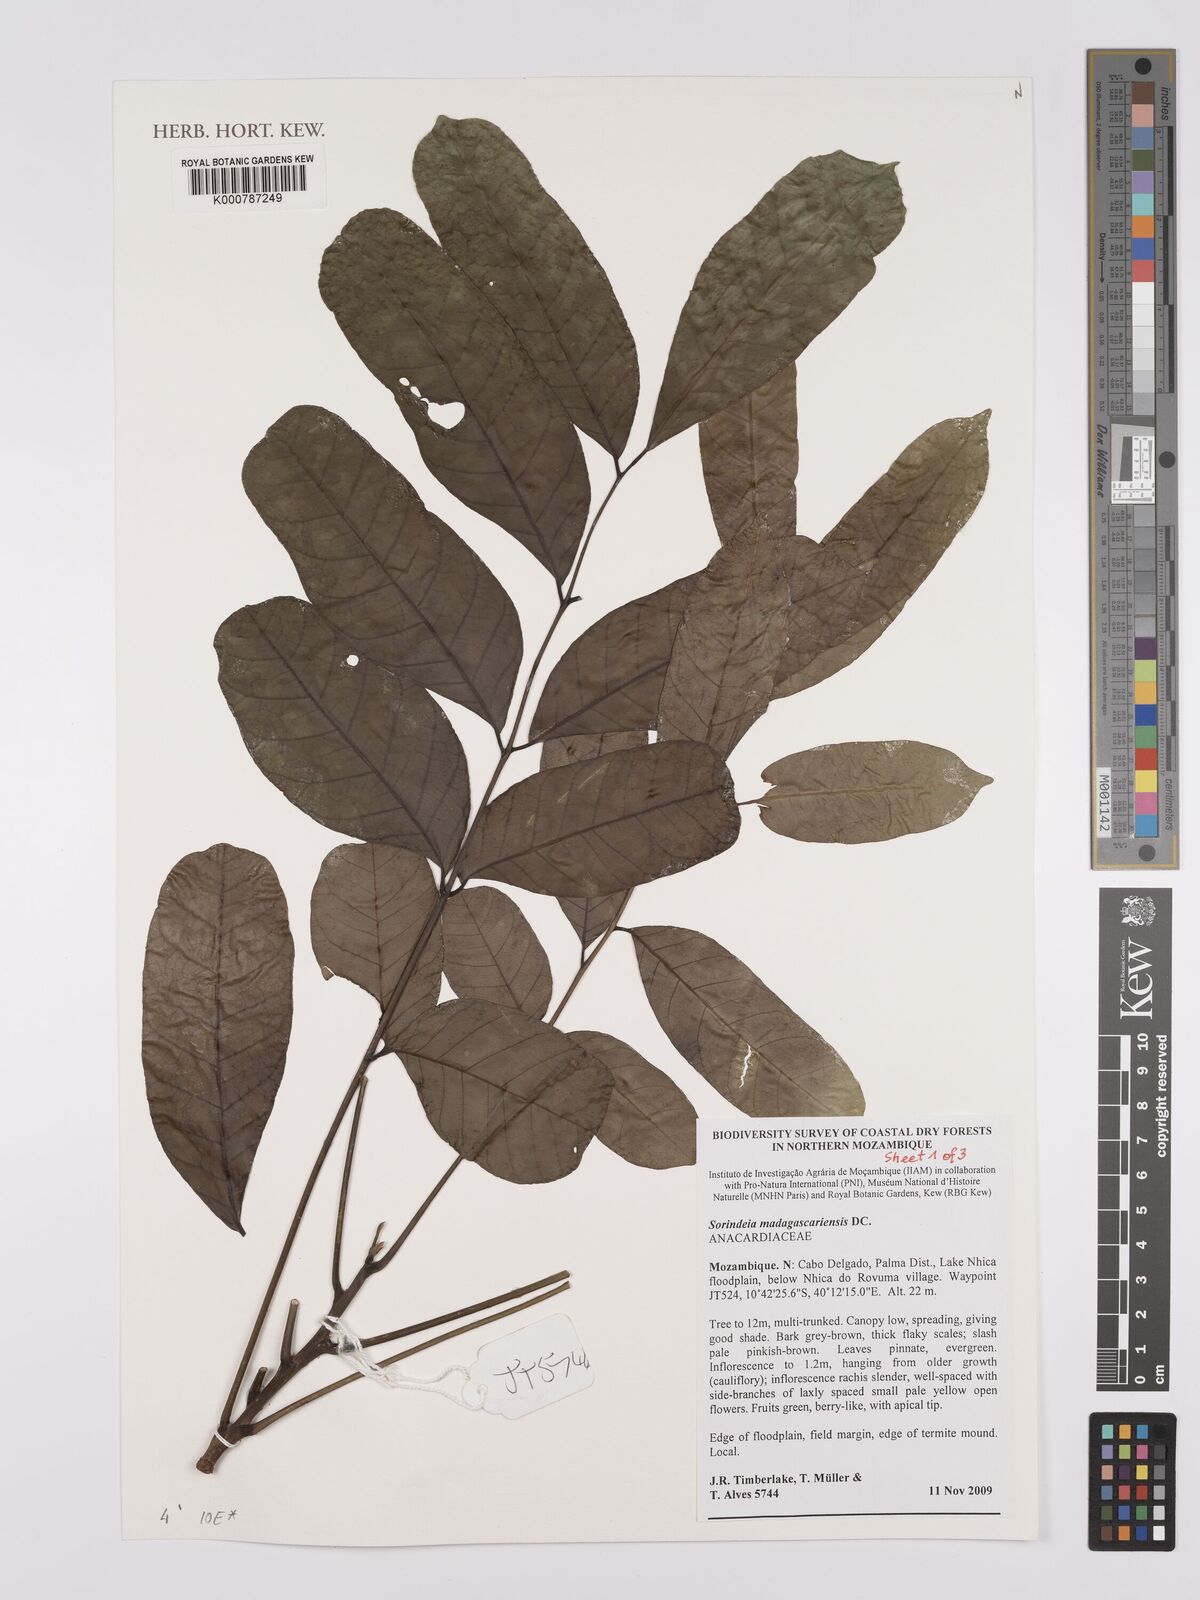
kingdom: Plantae
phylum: Tracheophyta
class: Magnoliopsida
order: Sapindales
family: Anacardiaceae
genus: Sorindeia
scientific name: Sorindeia madagascariensis
